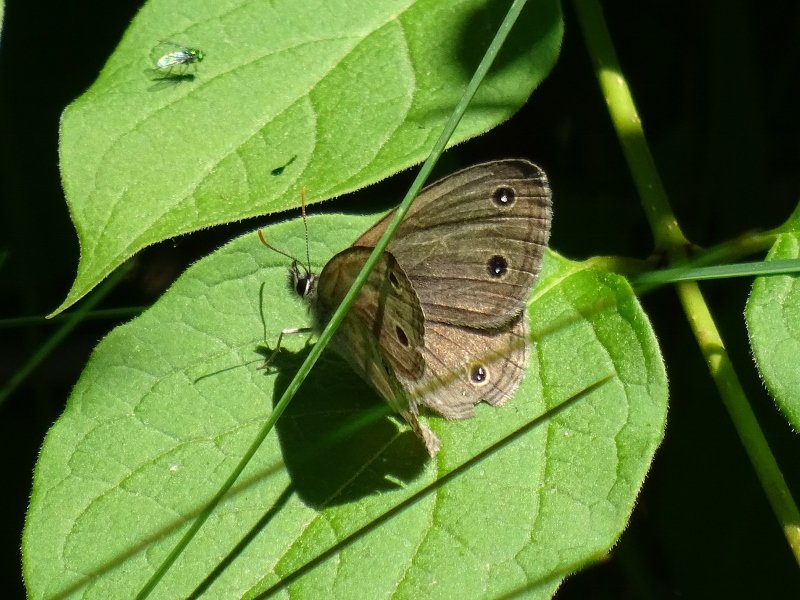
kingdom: Animalia
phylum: Arthropoda
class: Insecta
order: Lepidoptera
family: Nymphalidae
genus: Euptychia
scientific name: Euptychia cymela
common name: Little Wood Satyr
